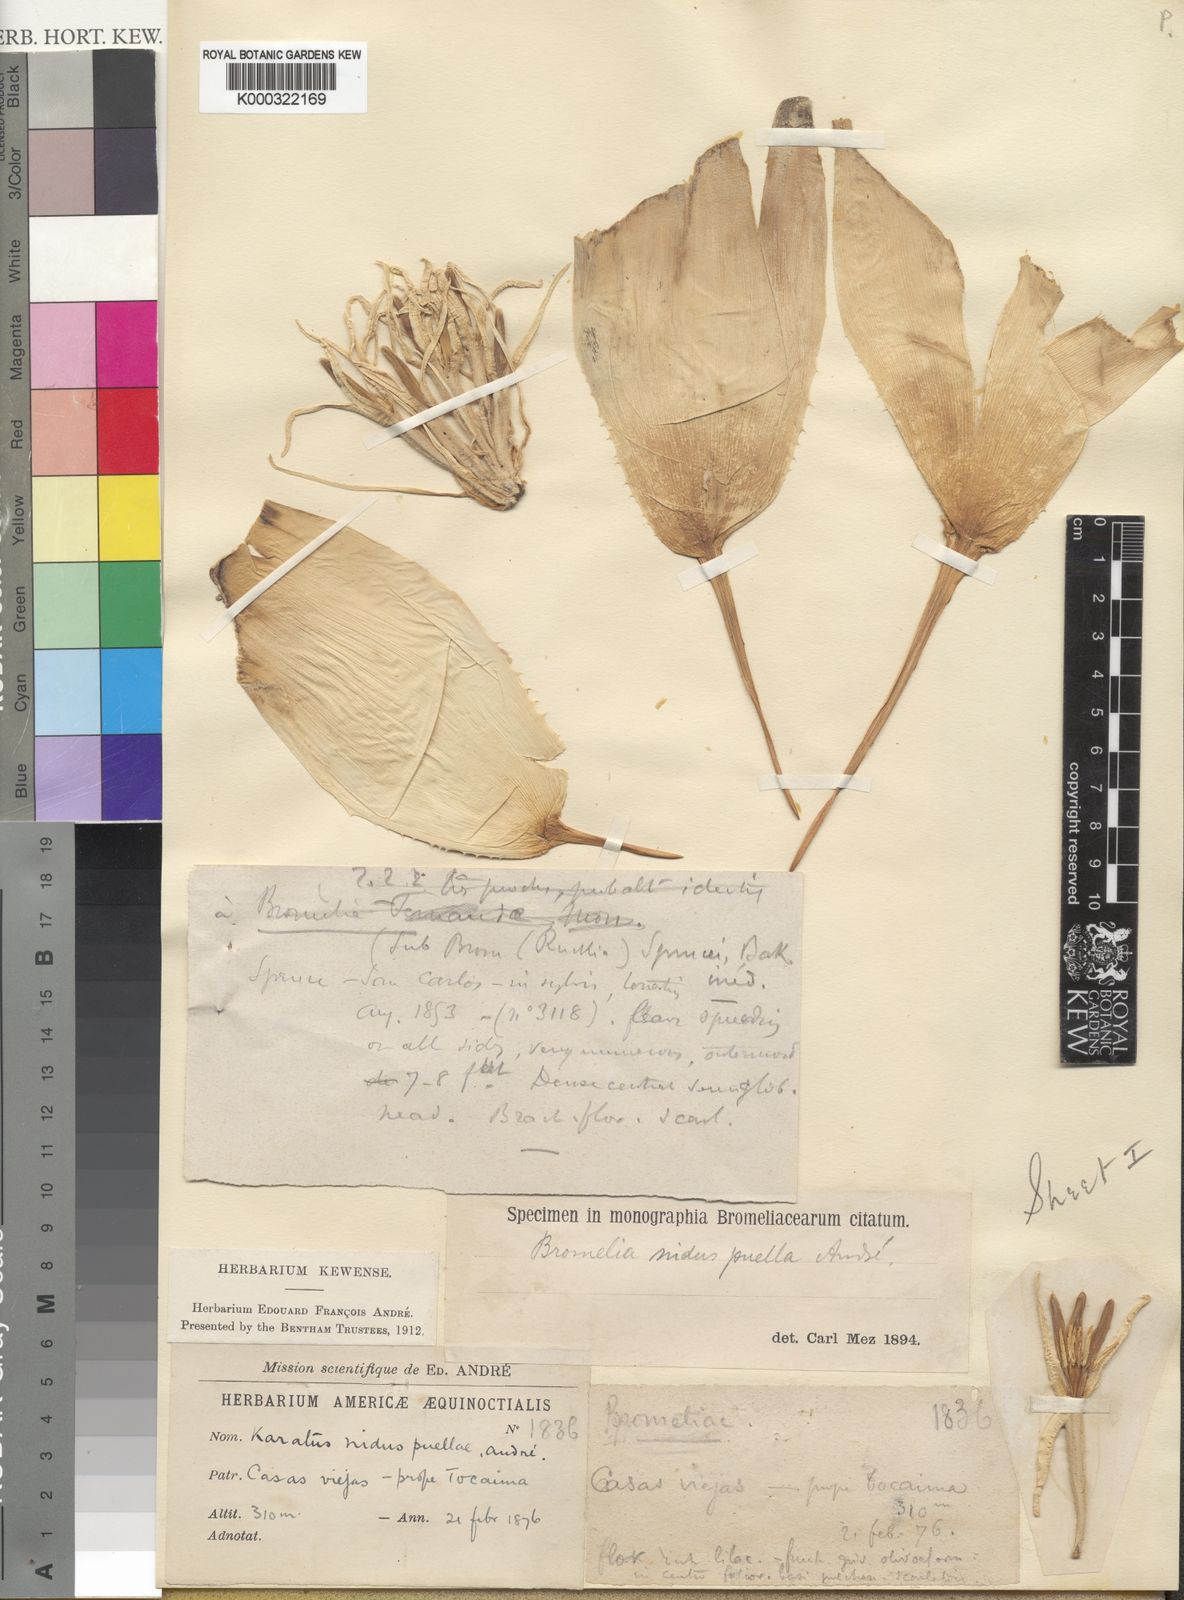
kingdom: Plantae
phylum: Tracheophyta
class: Liliopsida
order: Poales
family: Bromeliaceae
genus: Bromelia
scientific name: Bromelia nidus-puellae
